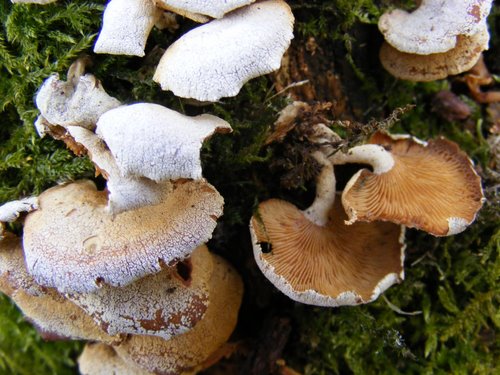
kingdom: Fungi
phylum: Basidiomycota
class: Agaricomycetes
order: Agaricales
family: Mycenaceae
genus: Panellus
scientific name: Panellus stipticus
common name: kliddet epaulethat
